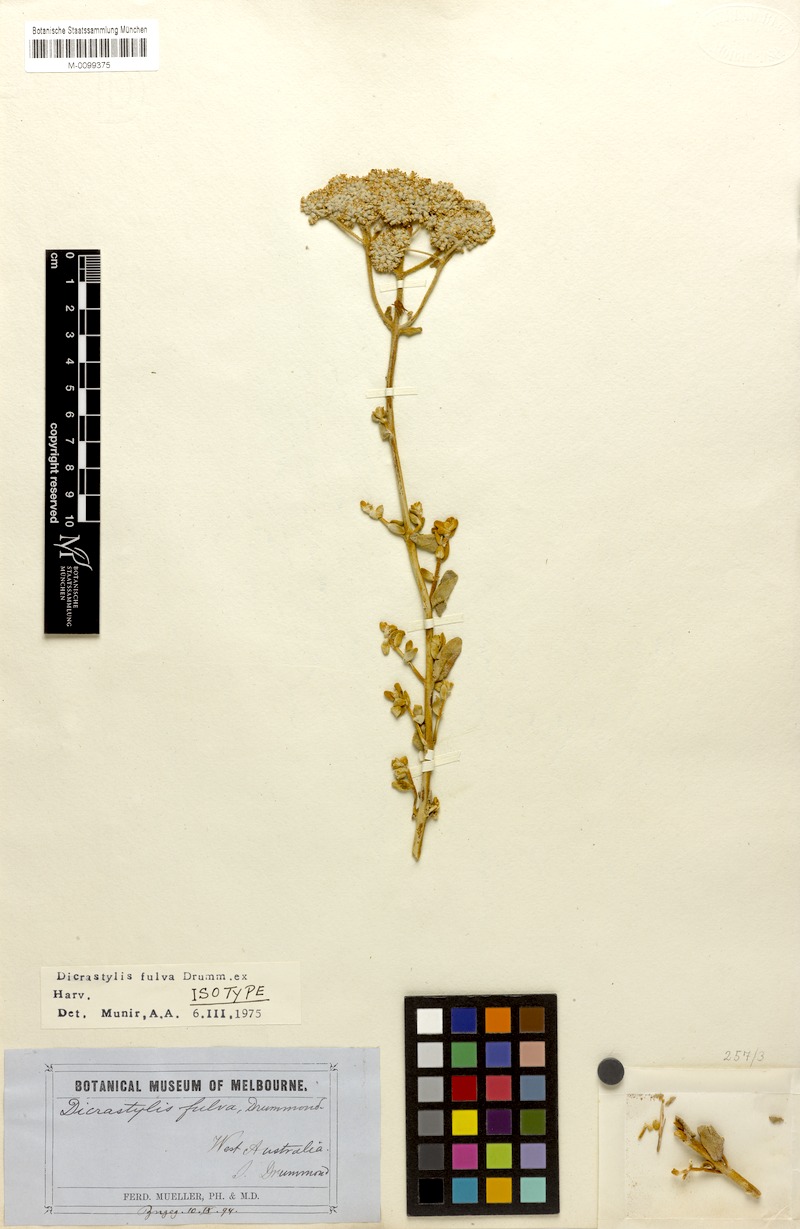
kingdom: Plantae
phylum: Tracheophyta
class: Magnoliopsida
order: Lamiales
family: Lamiaceae
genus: Dicrastylis
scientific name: Dicrastylis fulva
